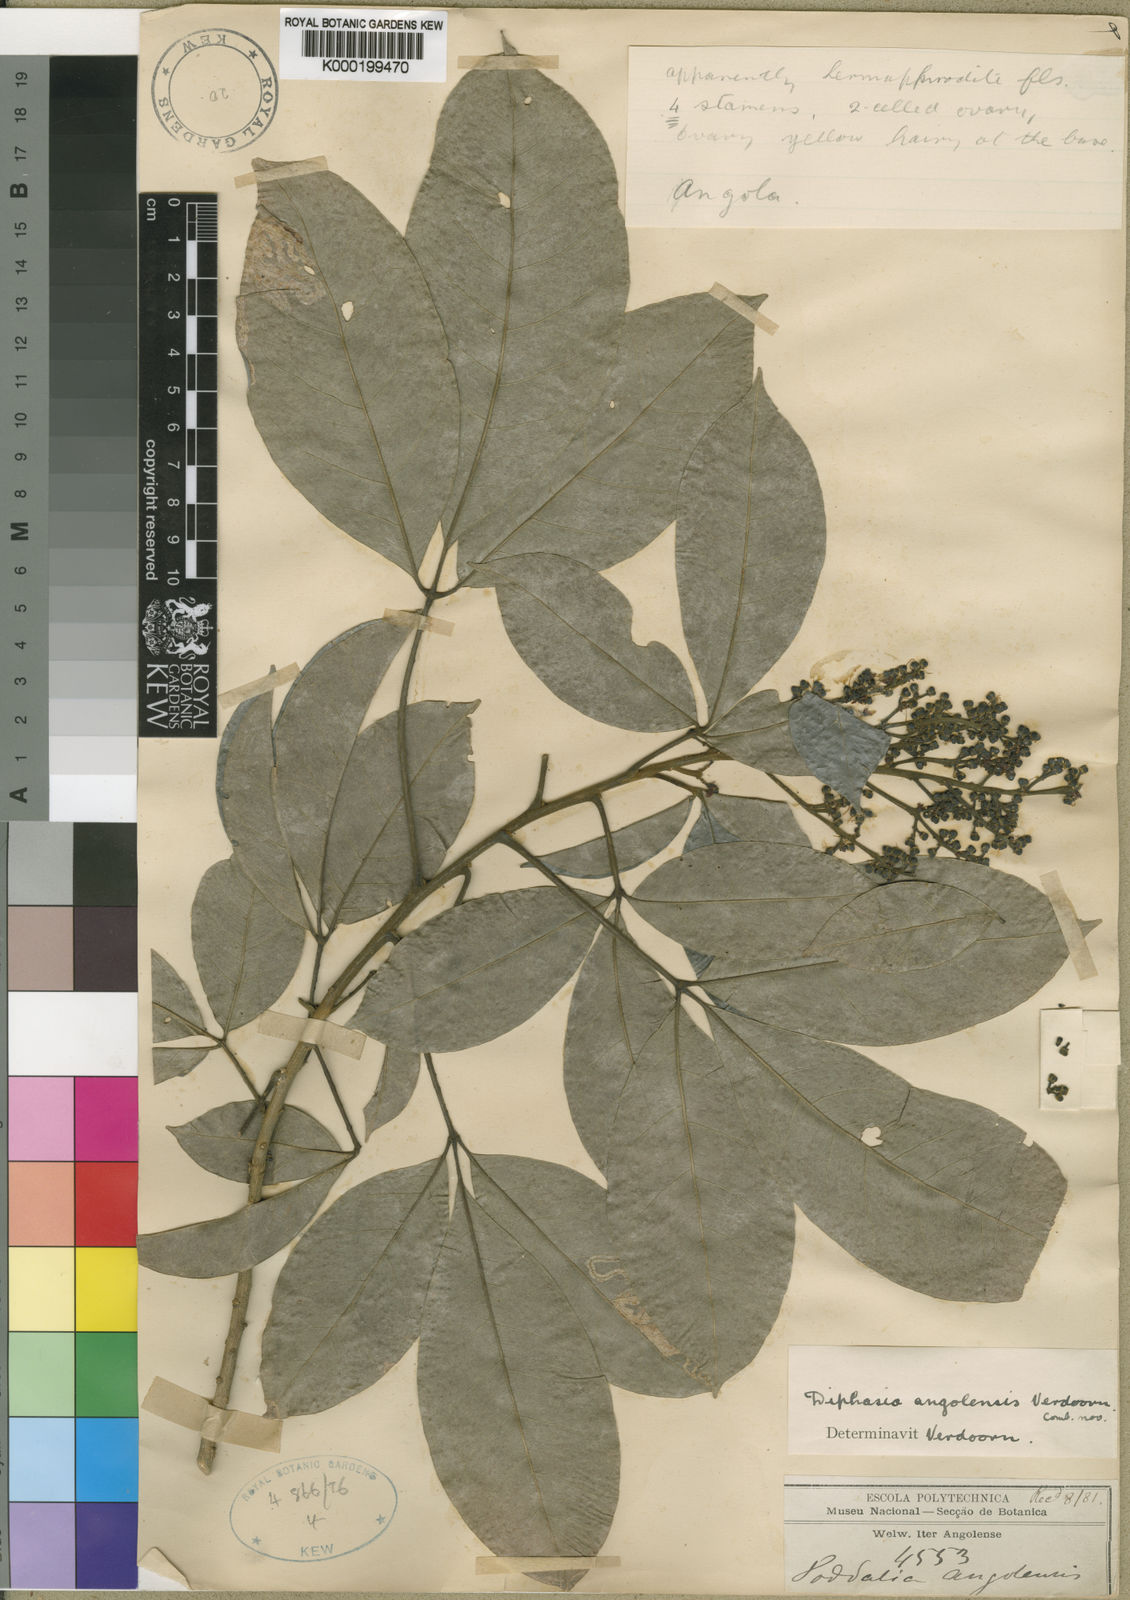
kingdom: Plantae
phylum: Tracheophyta
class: Magnoliopsida
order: Sapindales
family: Rutaceae
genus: Vepris
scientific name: Vepris hiernii
